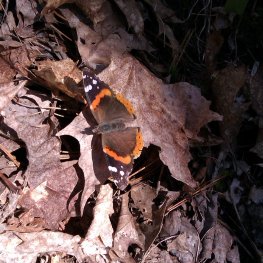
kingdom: Animalia
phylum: Arthropoda
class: Insecta
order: Lepidoptera
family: Nymphalidae
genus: Vanessa
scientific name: Vanessa atalanta
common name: Red Admiral
